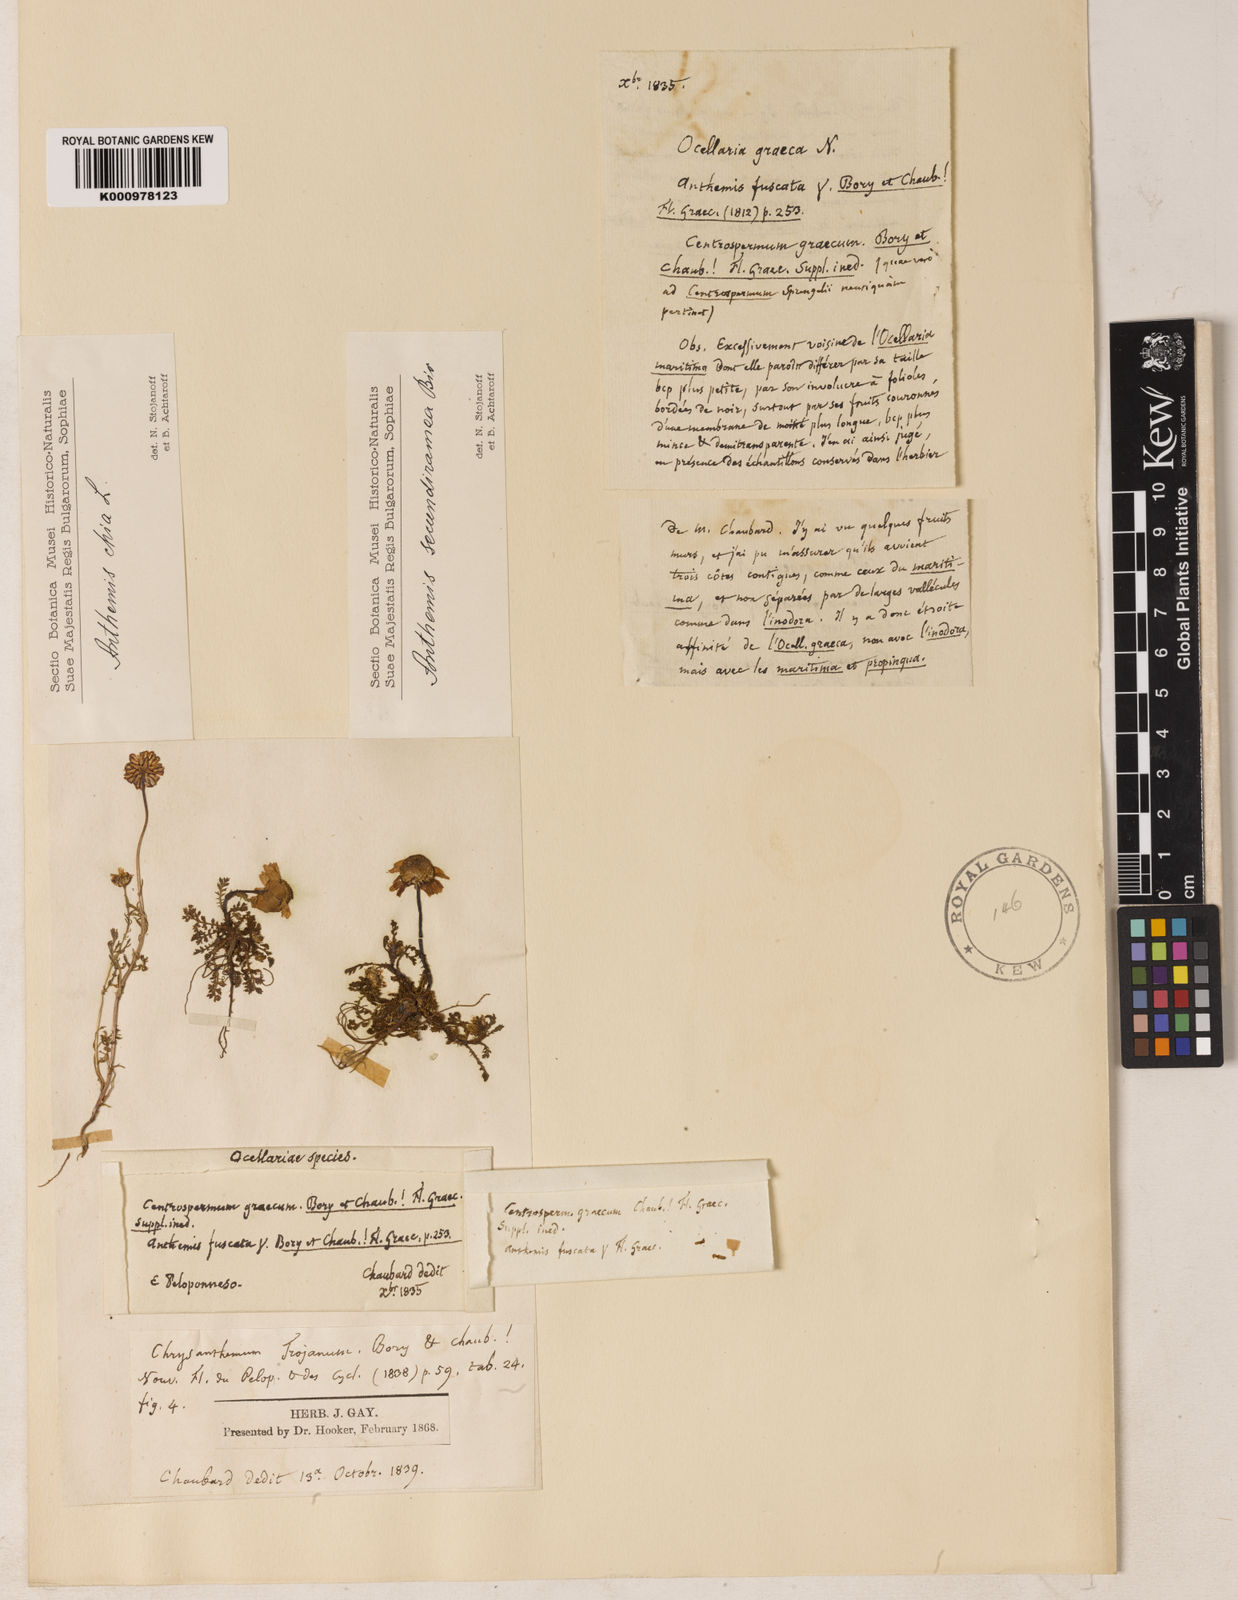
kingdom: Plantae
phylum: Tracheophyta
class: Magnoliopsida
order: Asterales
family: Asteraceae
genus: Anthemis
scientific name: Anthemis chia
